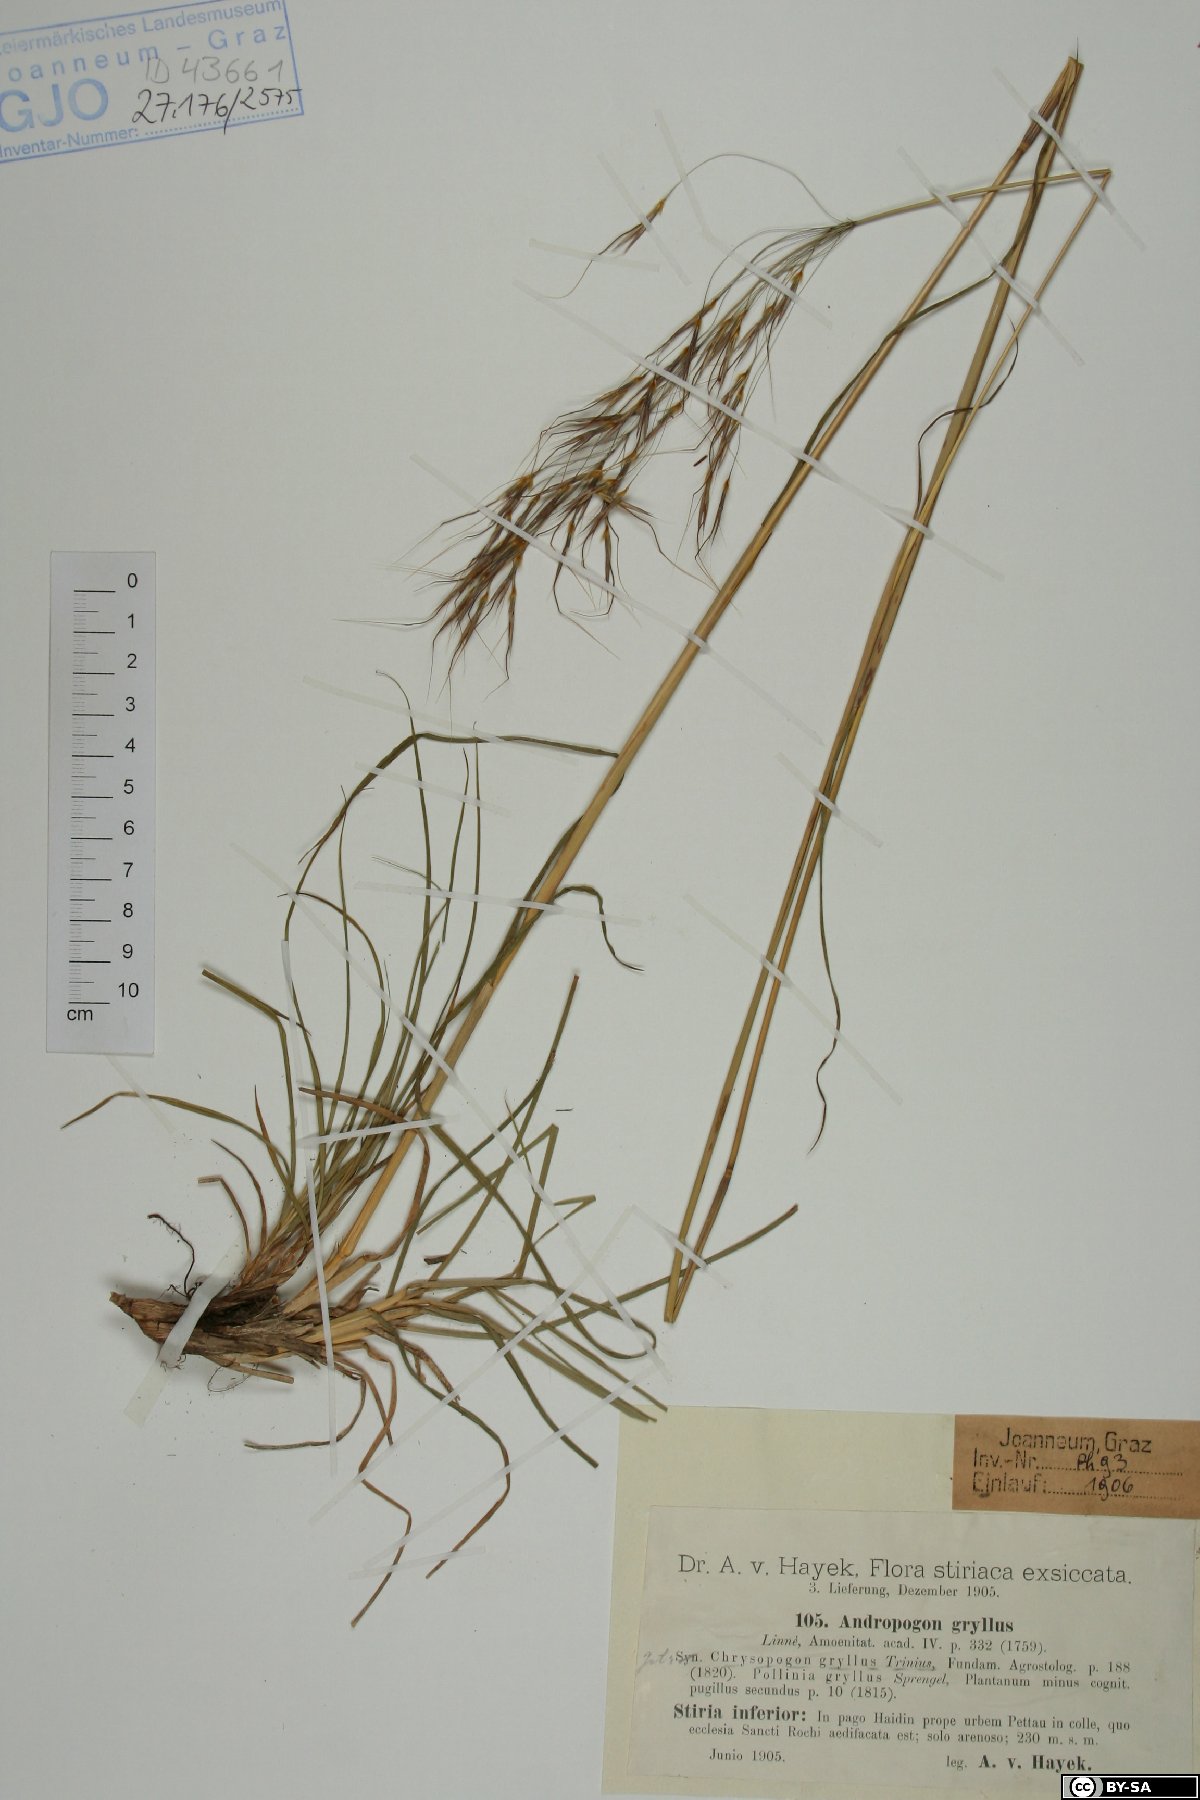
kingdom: Plantae
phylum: Tracheophyta
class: Liliopsida
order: Poales
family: Poaceae
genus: Chrysopogon
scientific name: Chrysopogon gryllus
